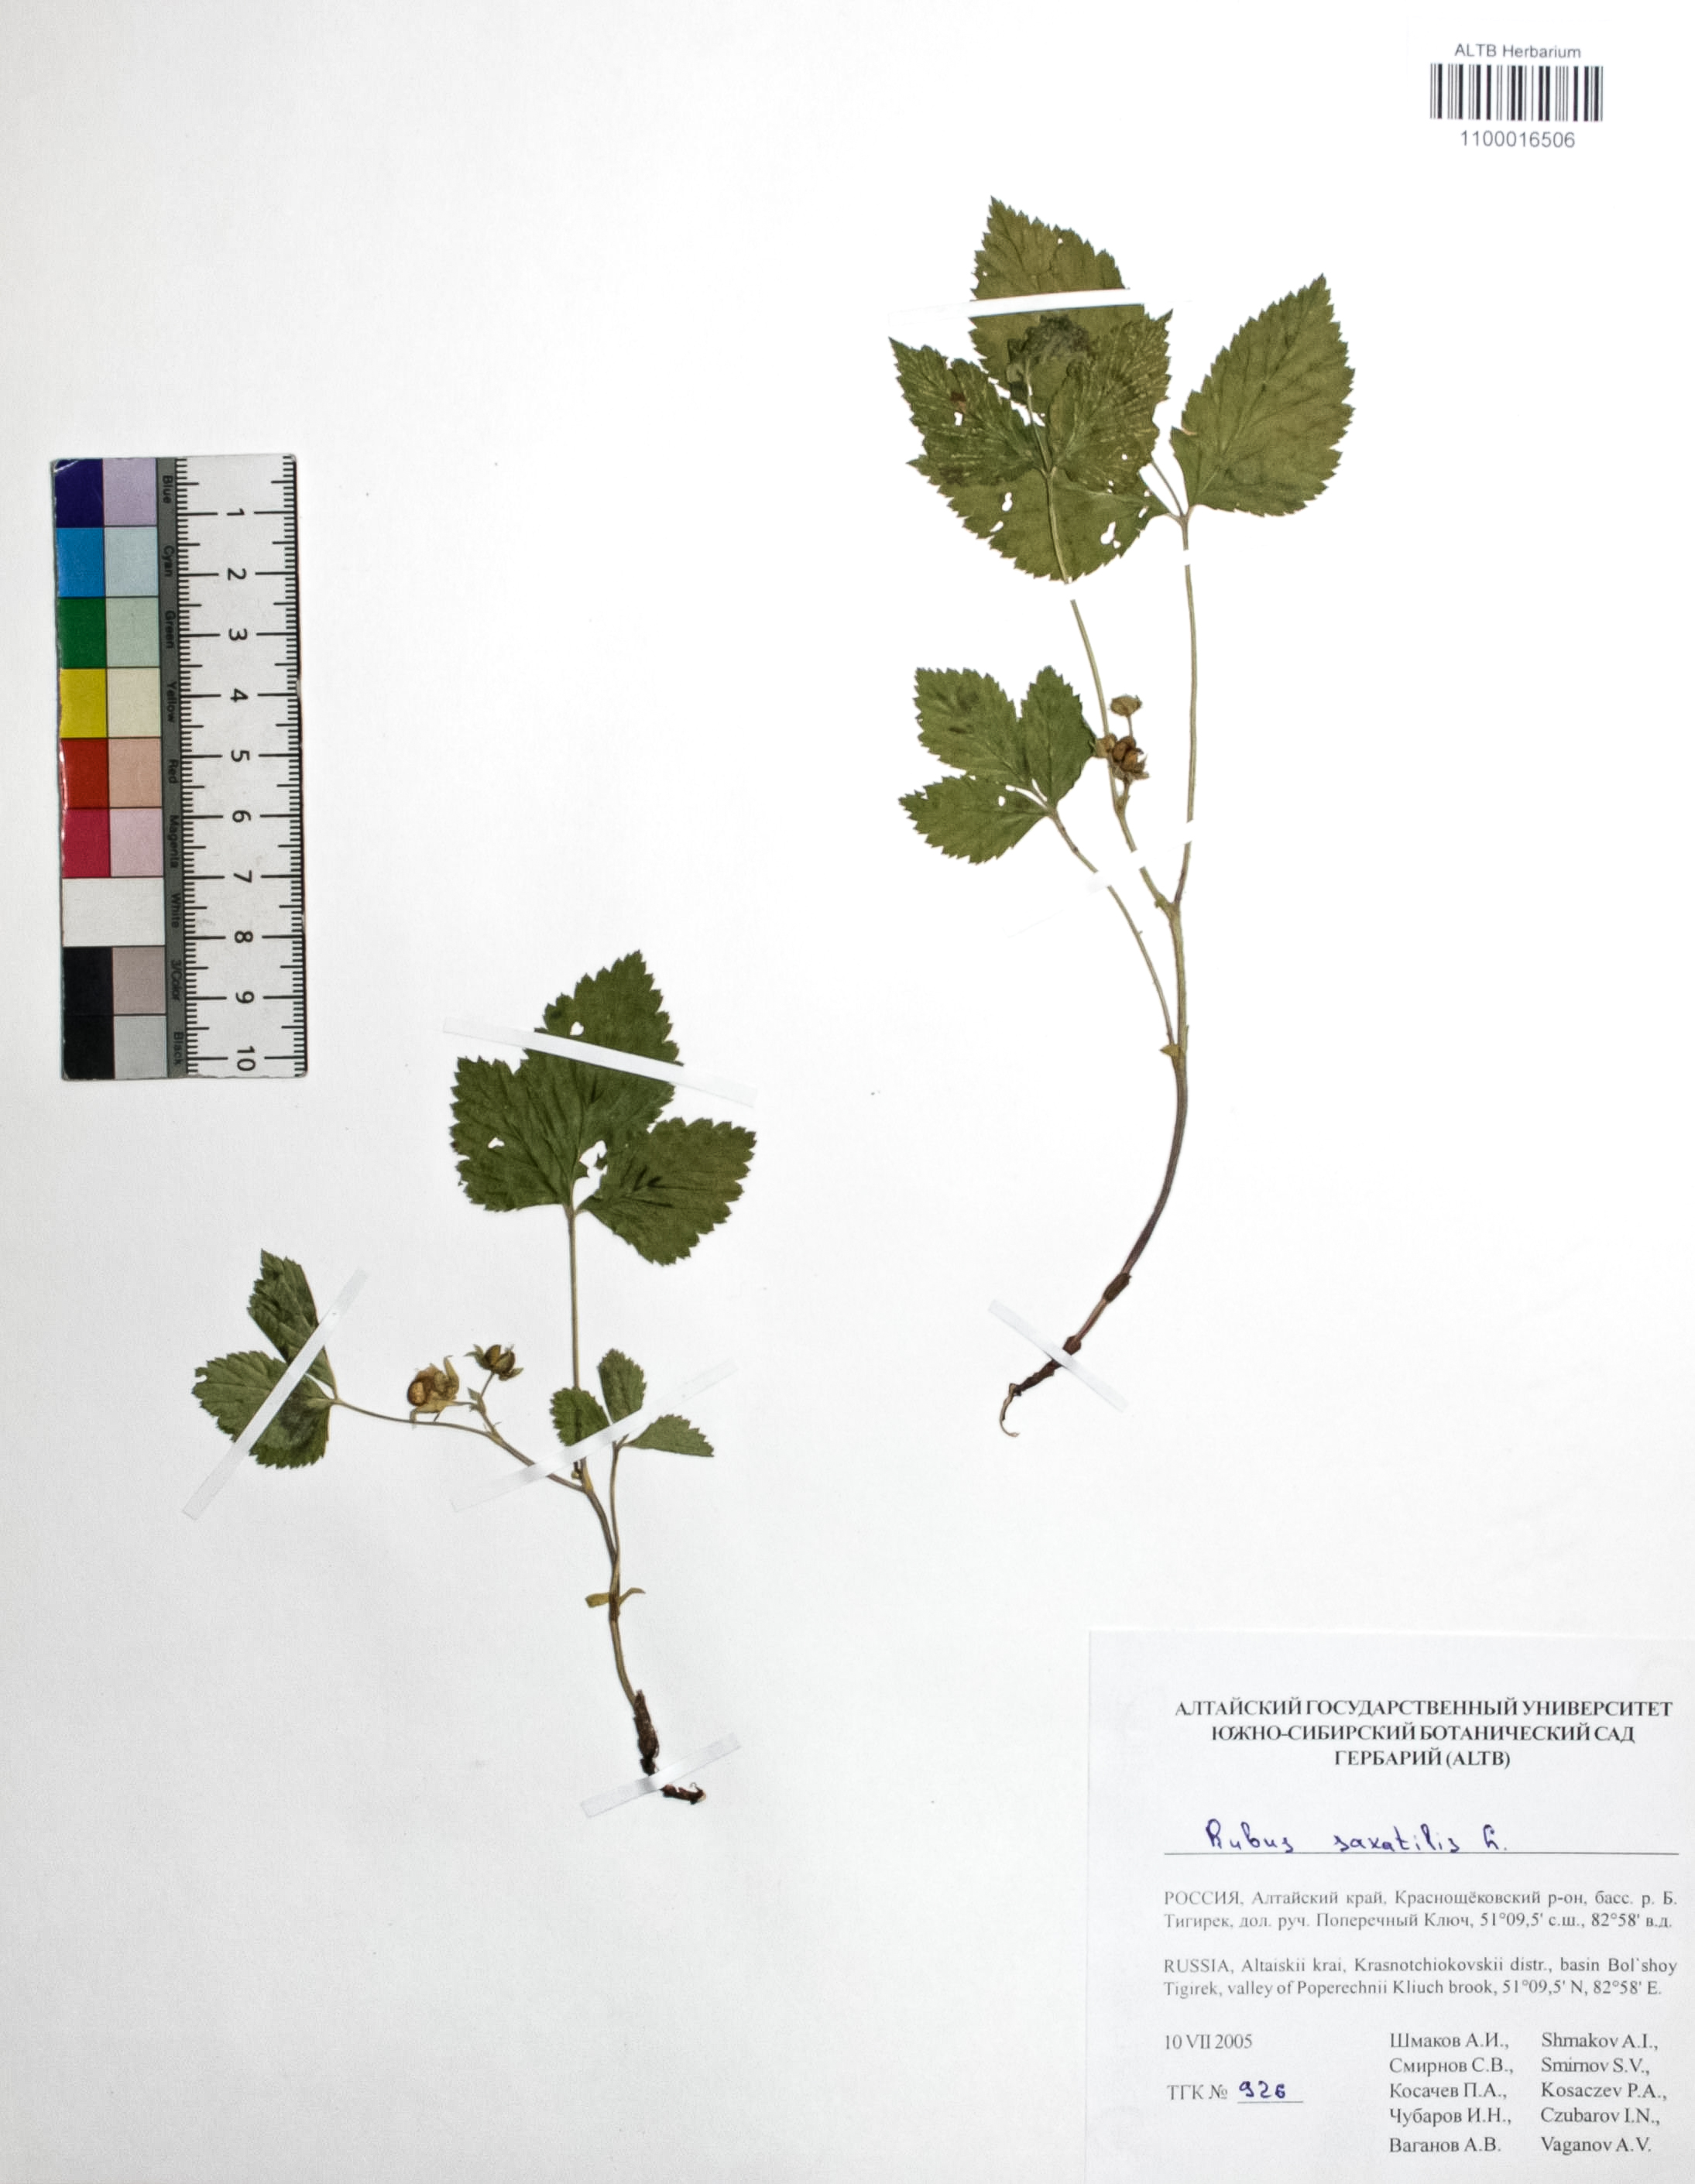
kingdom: Plantae
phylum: Tracheophyta
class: Magnoliopsida
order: Rosales
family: Rosaceae
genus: Rubus
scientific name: Rubus saxatilis
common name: Stone bramble
